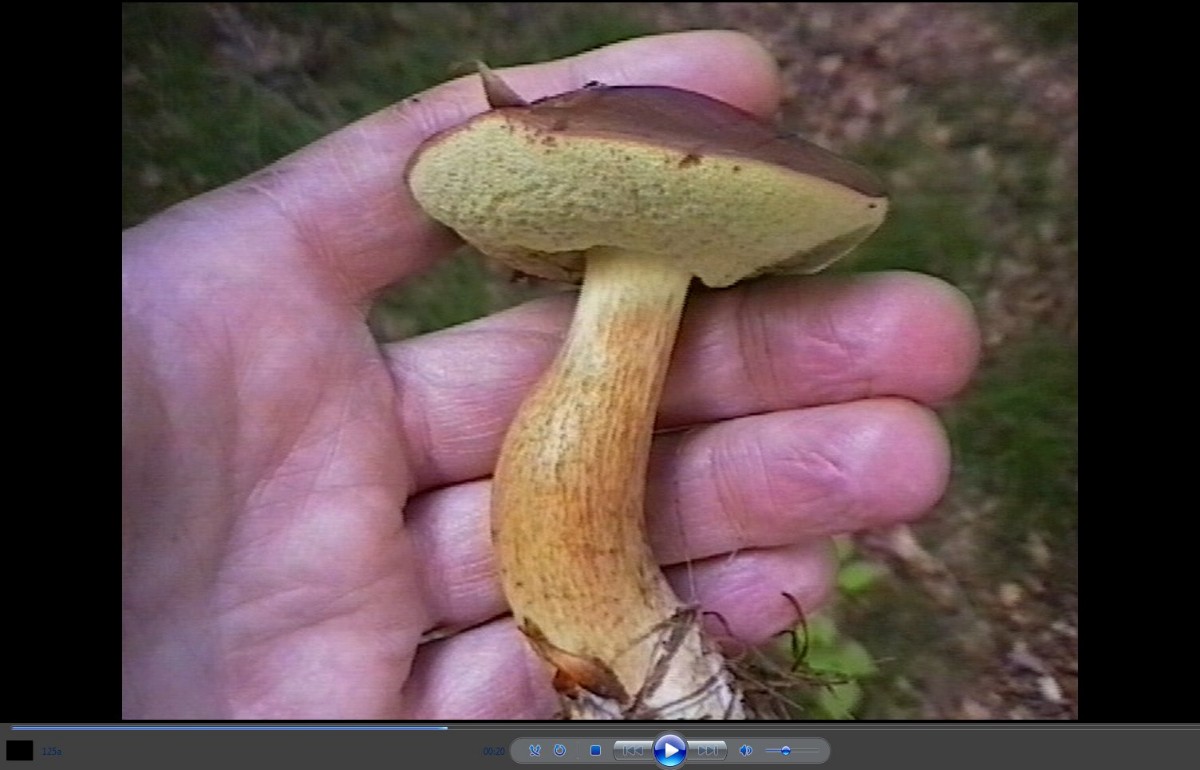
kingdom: Fungi
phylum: Basidiomycota
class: Agaricomycetes
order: Boletales
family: Boletaceae
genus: Imleria
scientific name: Imleria badia
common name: brunstokket rørhat
